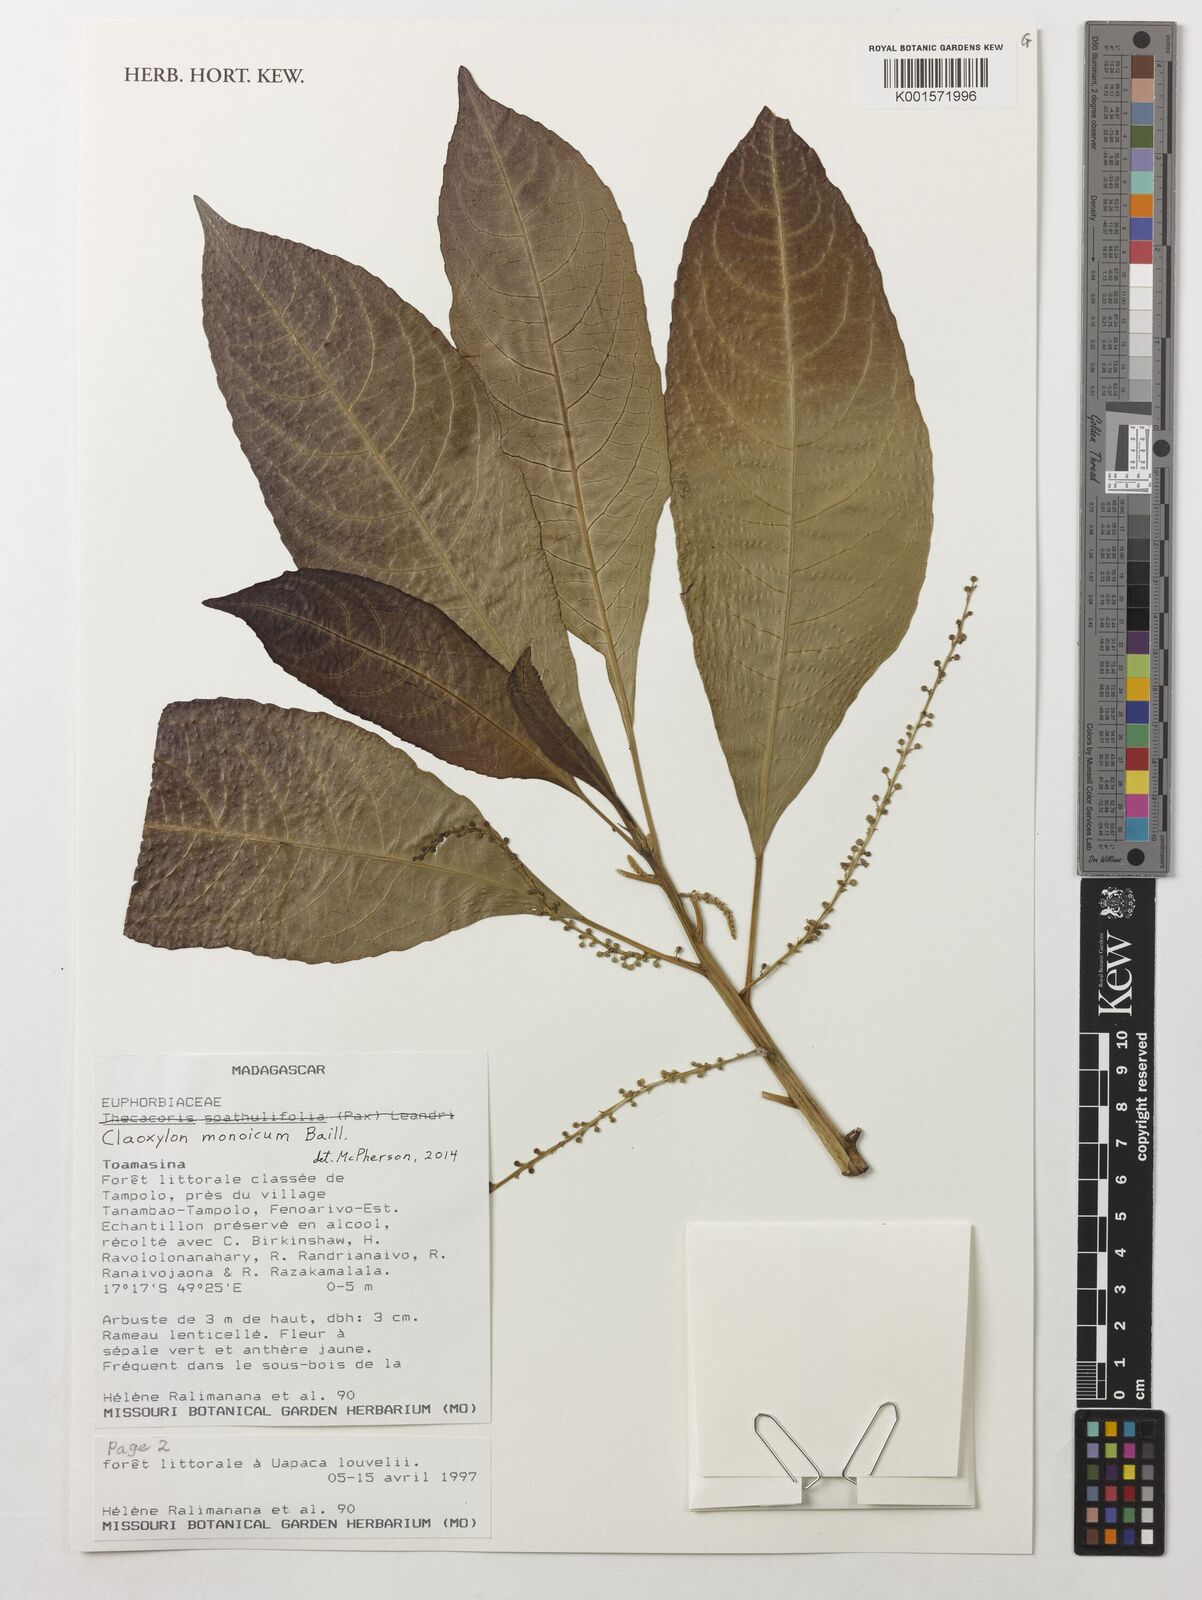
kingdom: Plantae
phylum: Tracheophyta
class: Magnoliopsida
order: Malpighiales
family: Euphorbiaceae
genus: Claoxylon
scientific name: Claoxylon monoicum
